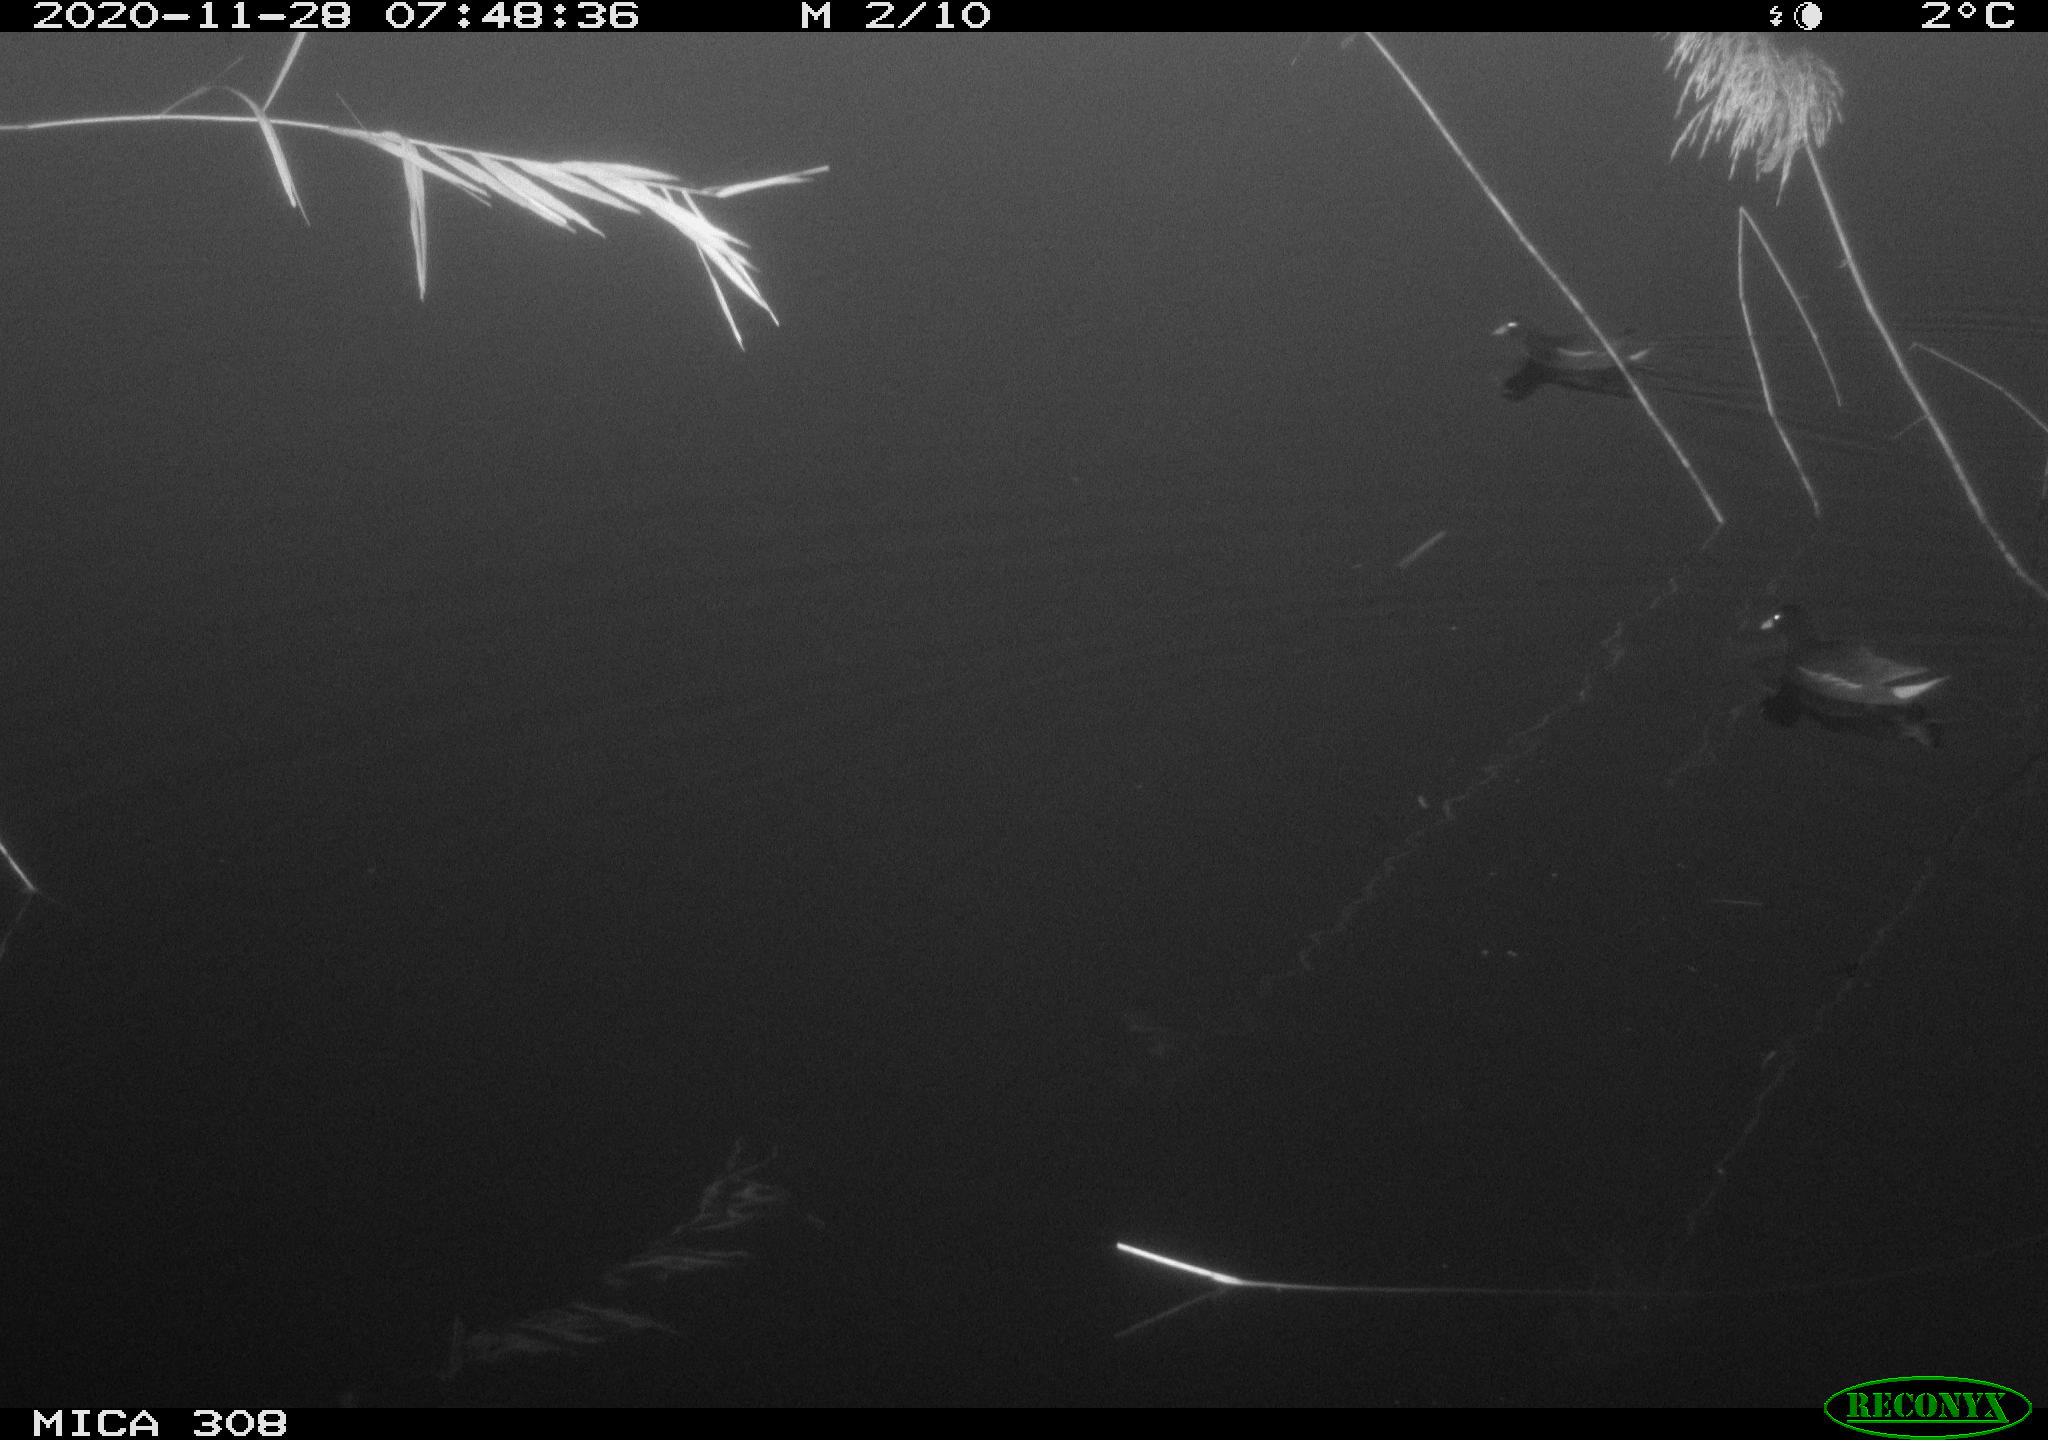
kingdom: Animalia
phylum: Chordata
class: Aves
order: Gruiformes
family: Rallidae
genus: Gallinula
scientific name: Gallinula chloropus
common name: Common moorhen
